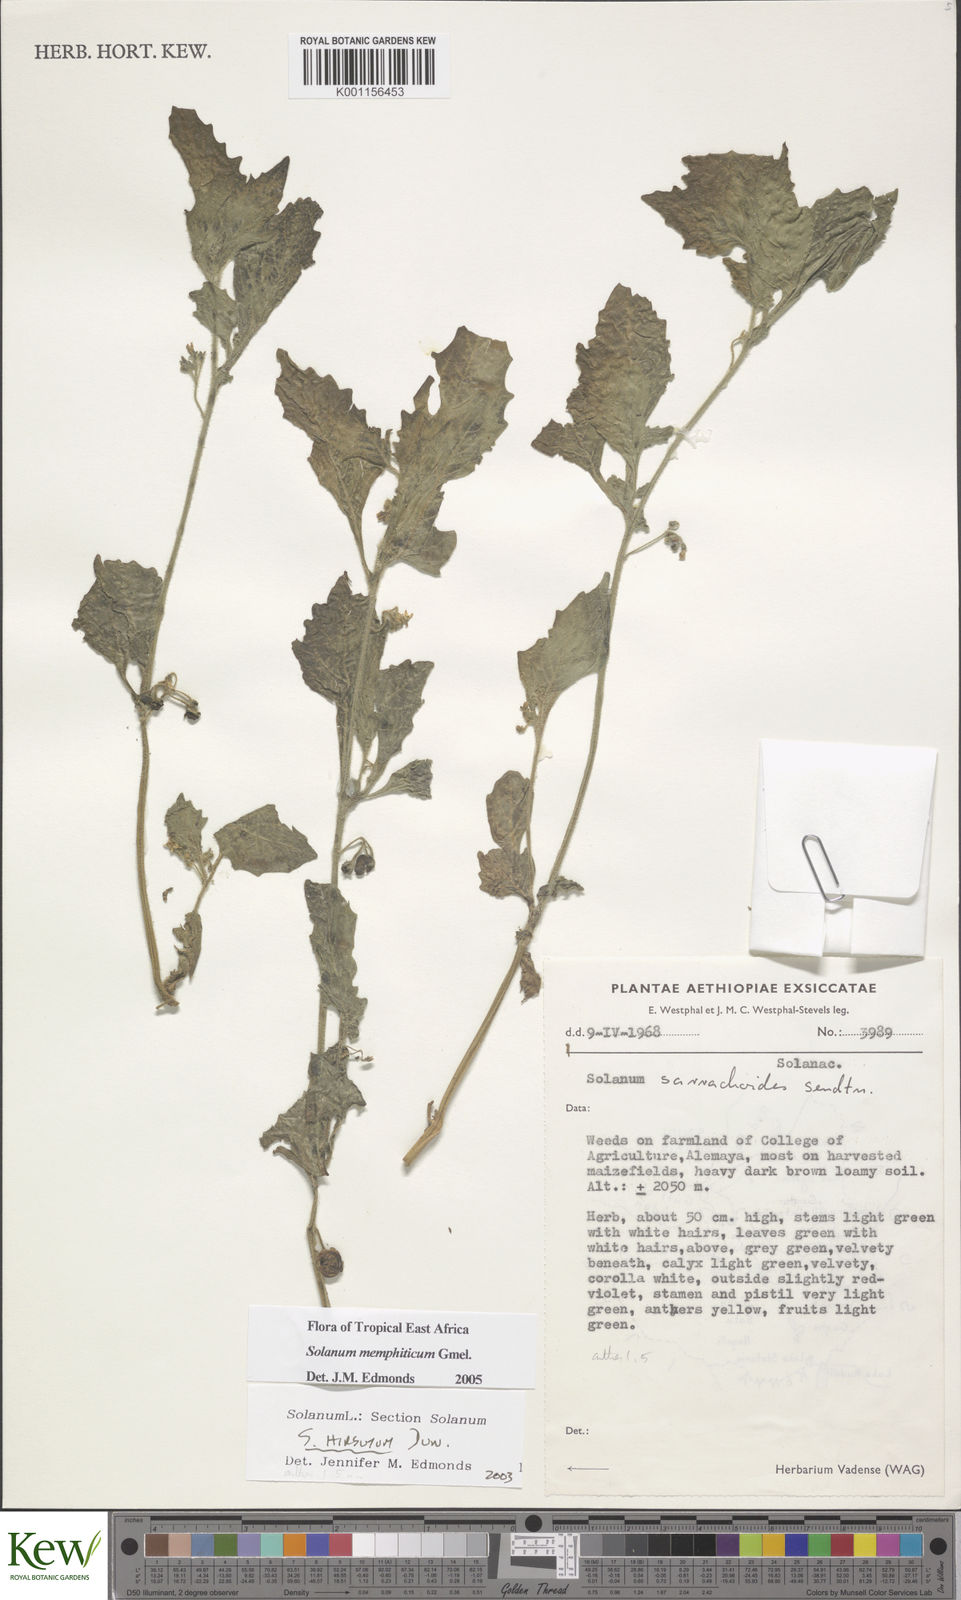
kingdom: Plantae
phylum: Tracheophyta
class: Magnoliopsida
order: Solanales
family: Solanaceae
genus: Solanum
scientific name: Solanum memphiticum
